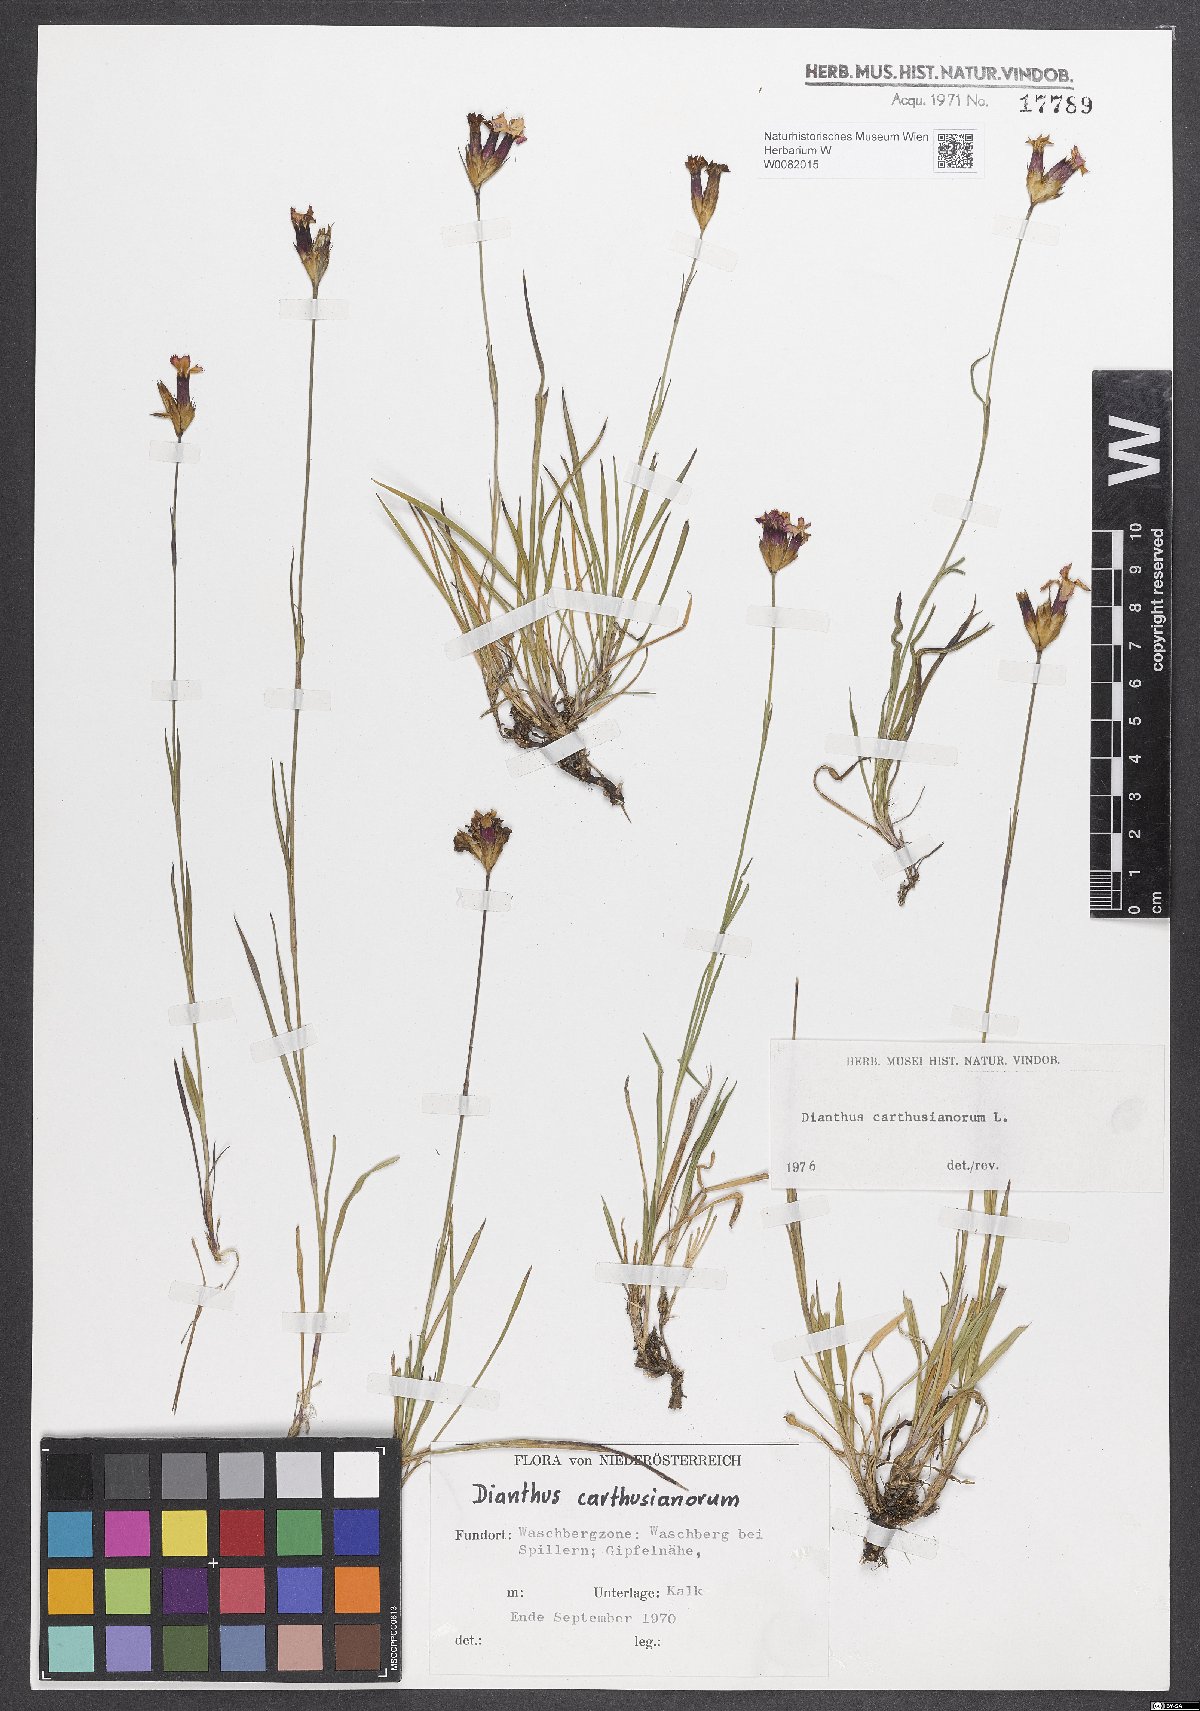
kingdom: Plantae
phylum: Tracheophyta
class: Magnoliopsida
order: Caryophyllales
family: Caryophyllaceae
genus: Dianthus
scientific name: Dianthus carthusianorum
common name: Carthusian pink
